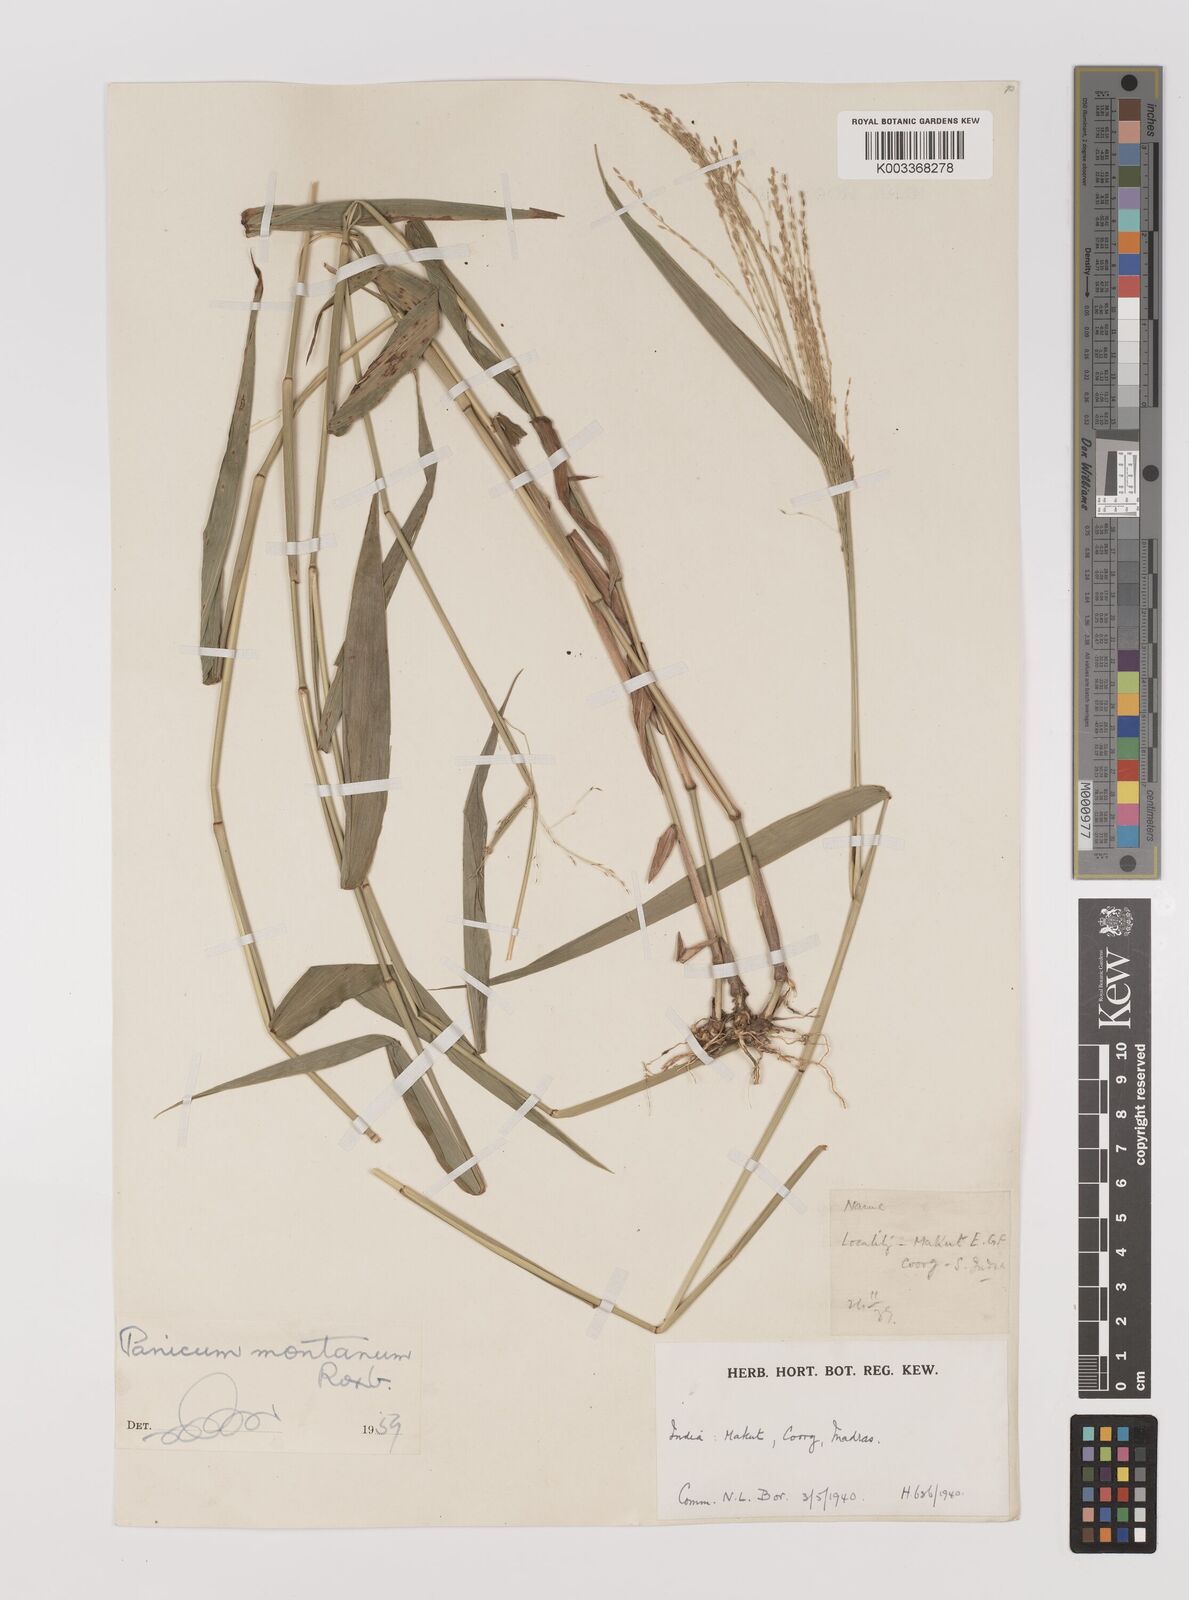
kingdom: Plantae
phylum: Tracheophyta
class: Liliopsida
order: Poales
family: Poaceae
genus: Panicum
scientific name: Panicum notatum
